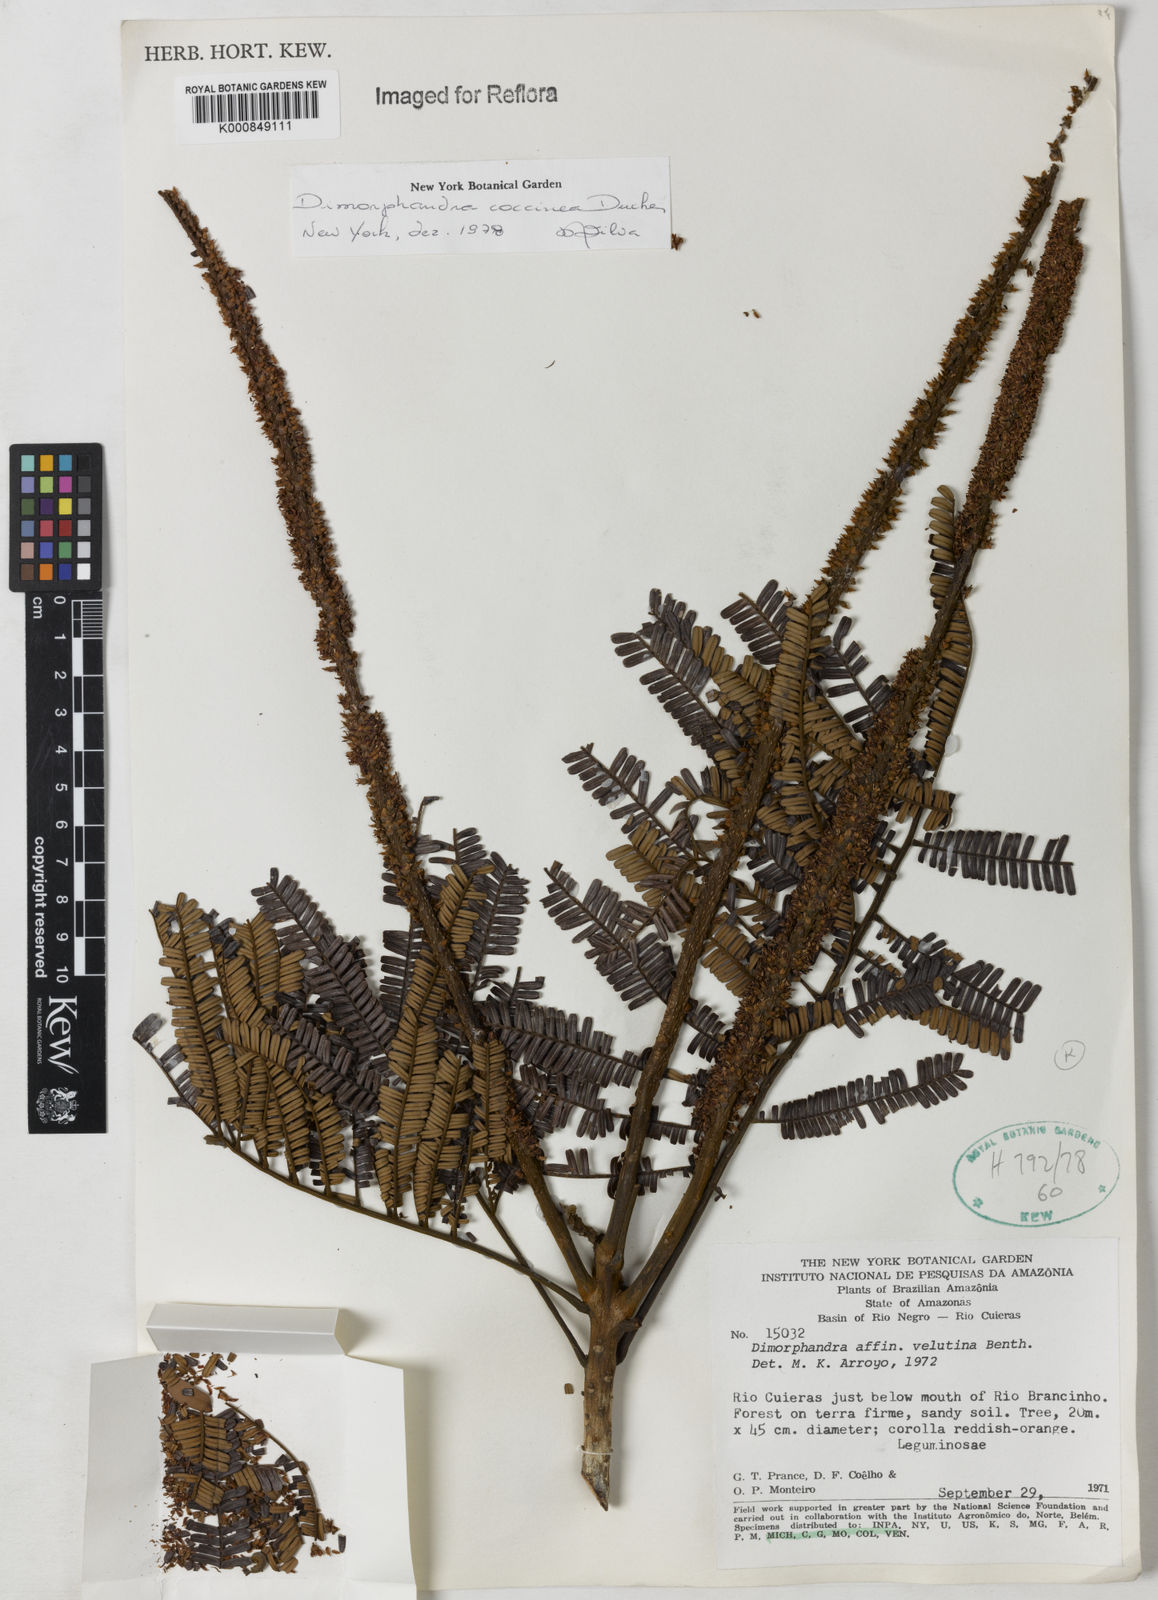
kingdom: Plantae
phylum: Tracheophyta
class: Magnoliopsida
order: Fabales
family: Fabaceae
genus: Dimorphandra
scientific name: Dimorphandra coccinea
